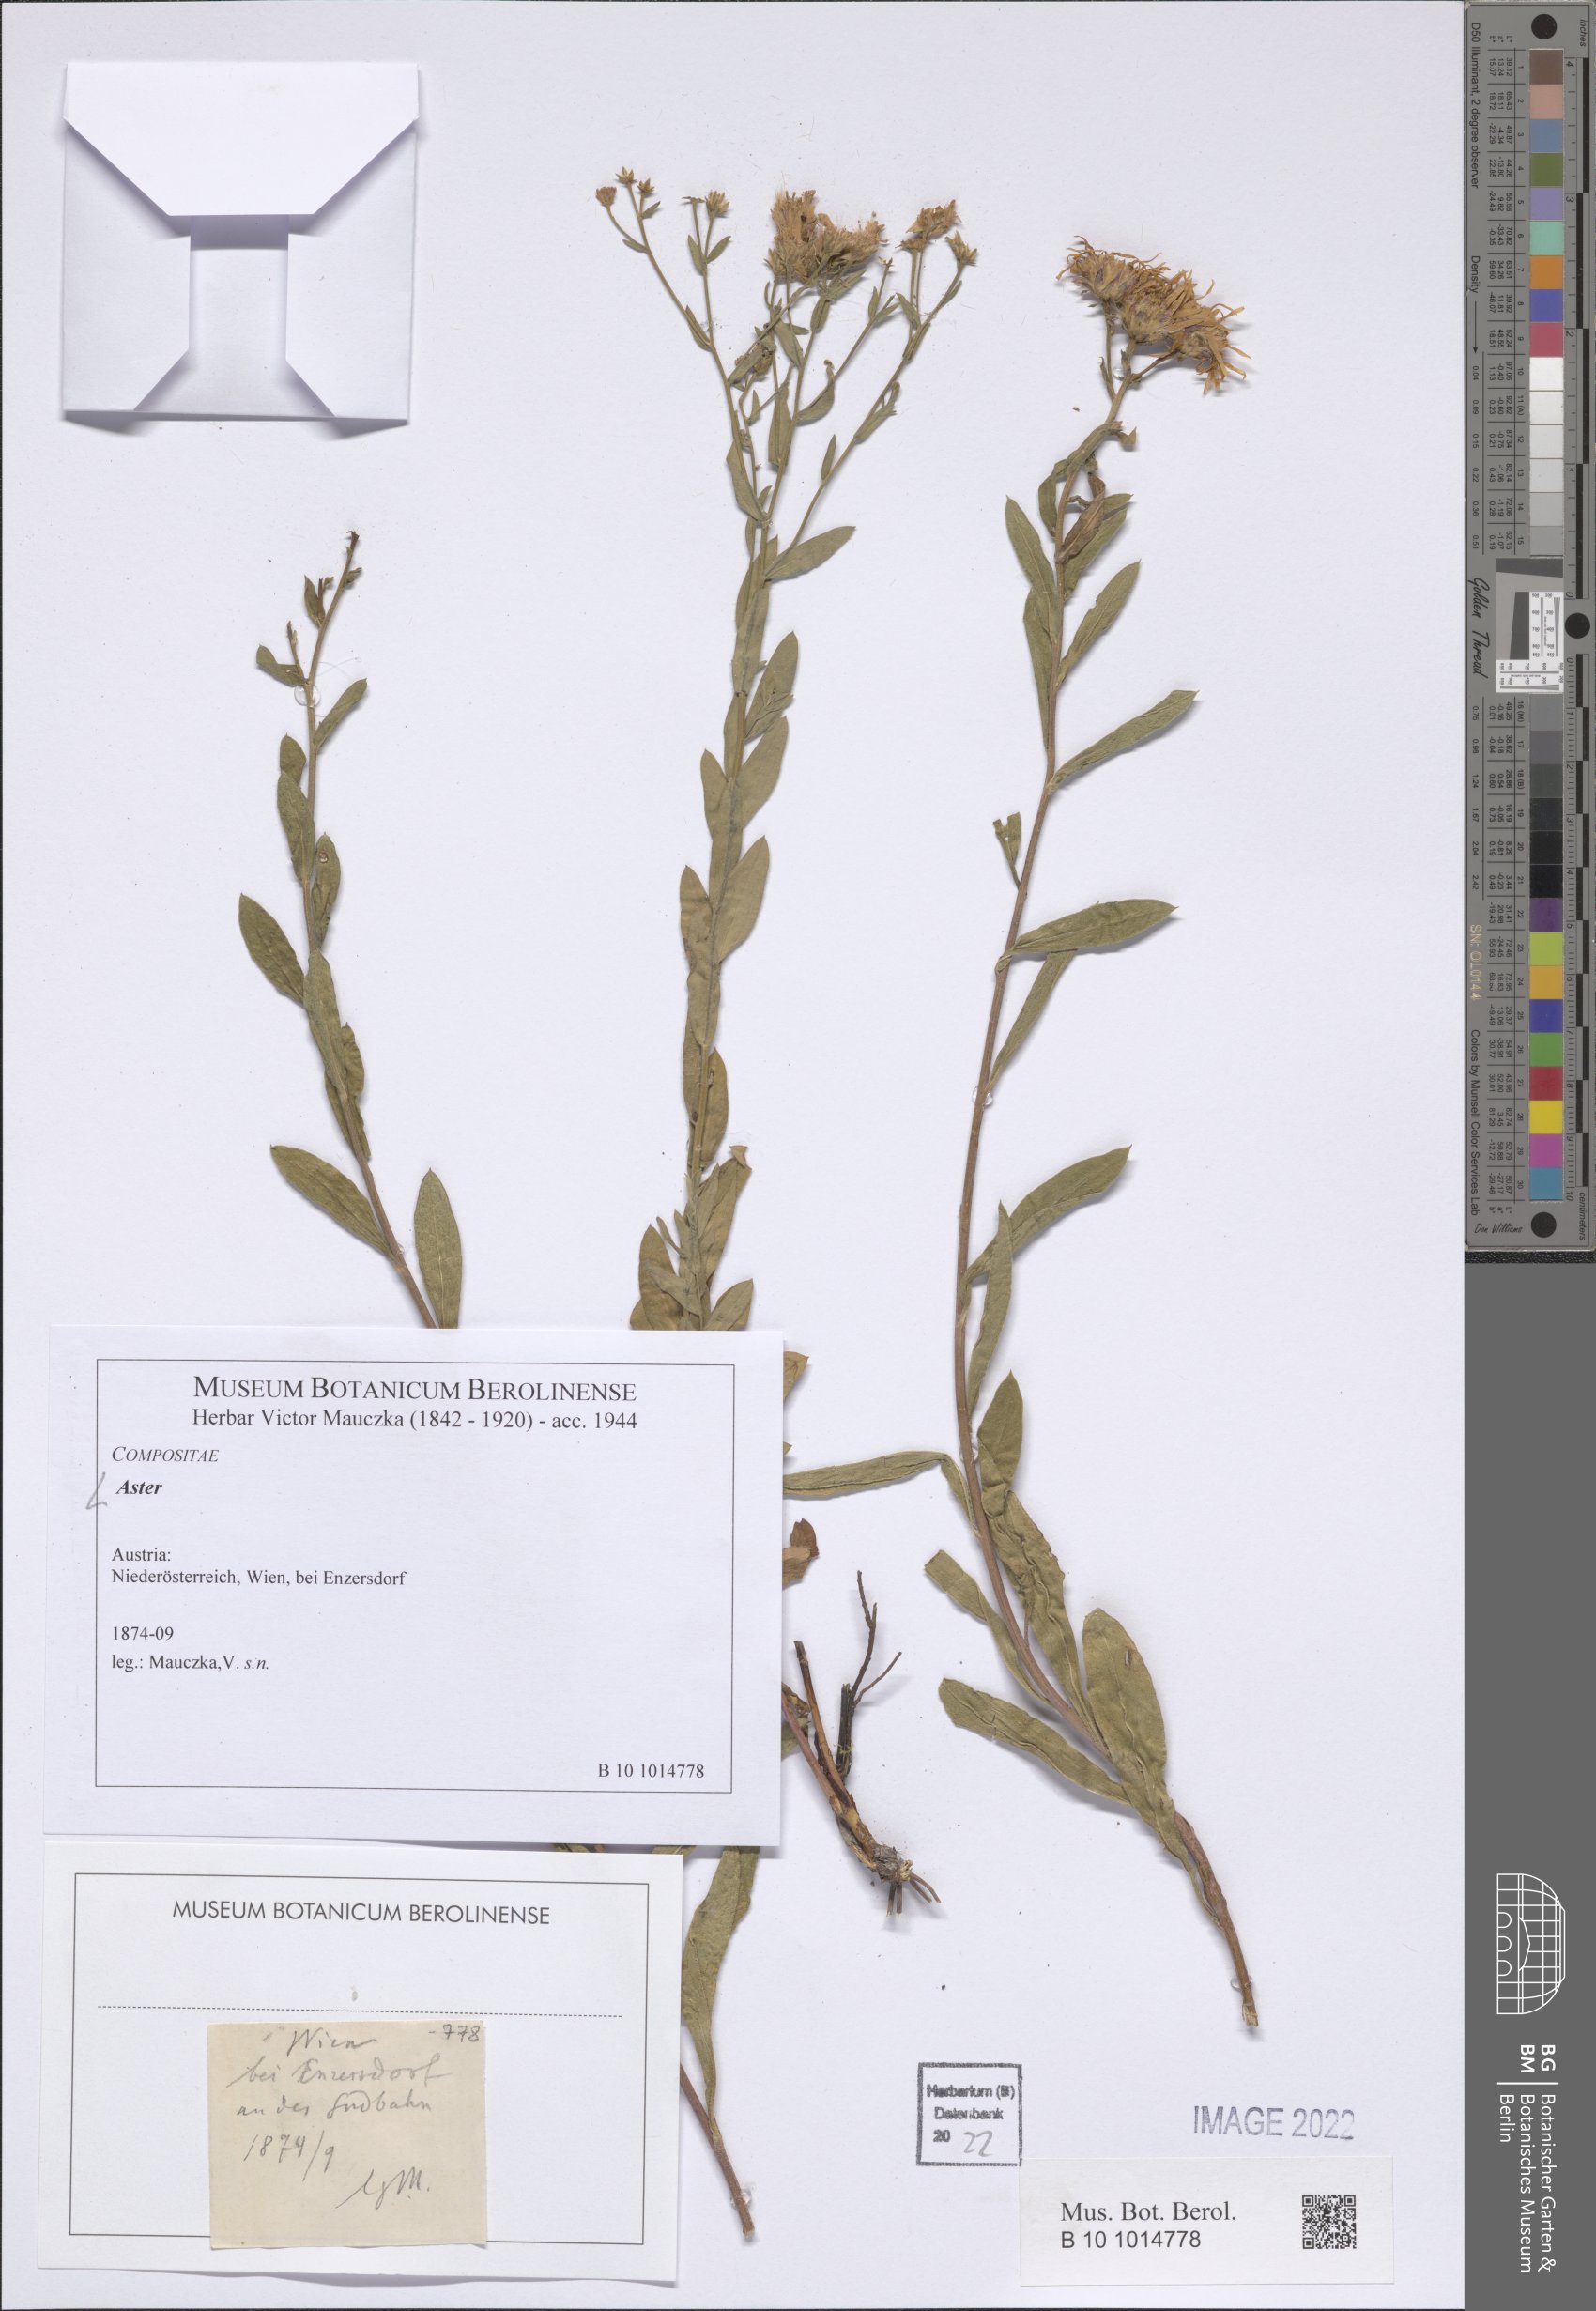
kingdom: Plantae
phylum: Tracheophyta
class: Magnoliopsida
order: Asterales
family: Asteraceae
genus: Aster
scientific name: Aster
